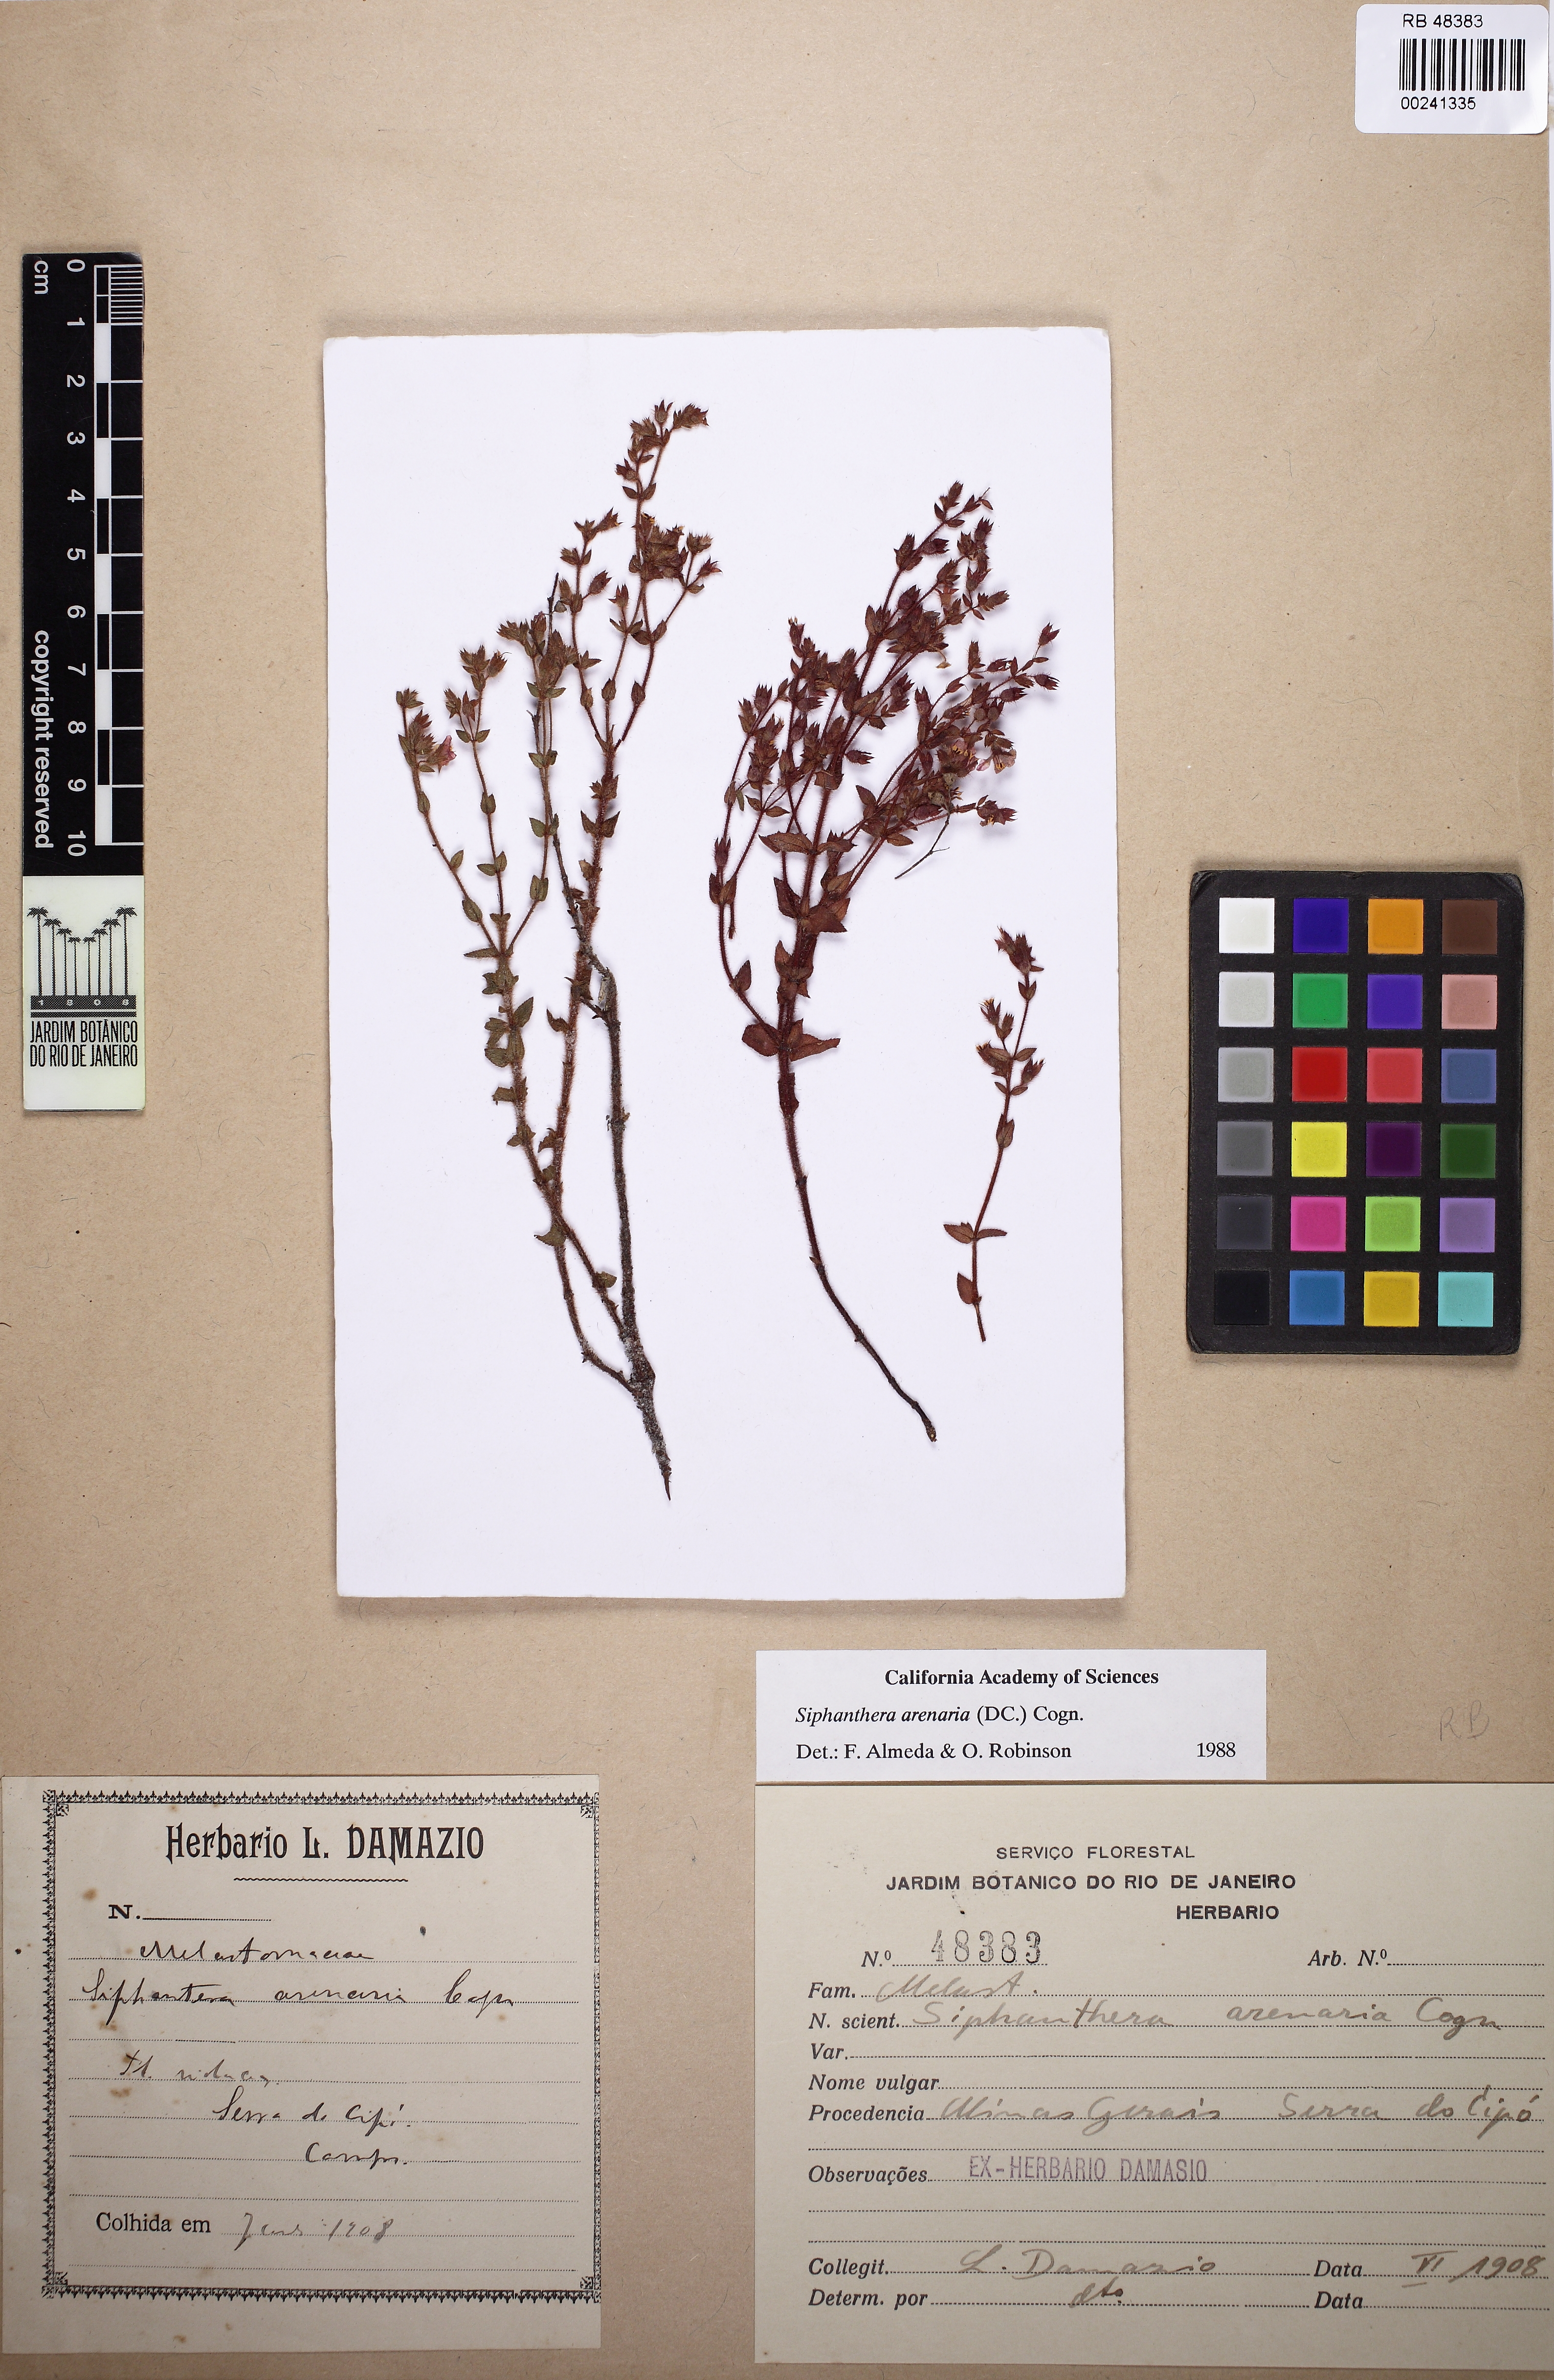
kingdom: Plantae
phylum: Tracheophyta
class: Magnoliopsida
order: Myrtales
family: Melastomataceae
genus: Siphanthera
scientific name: Siphanthera arenaria
